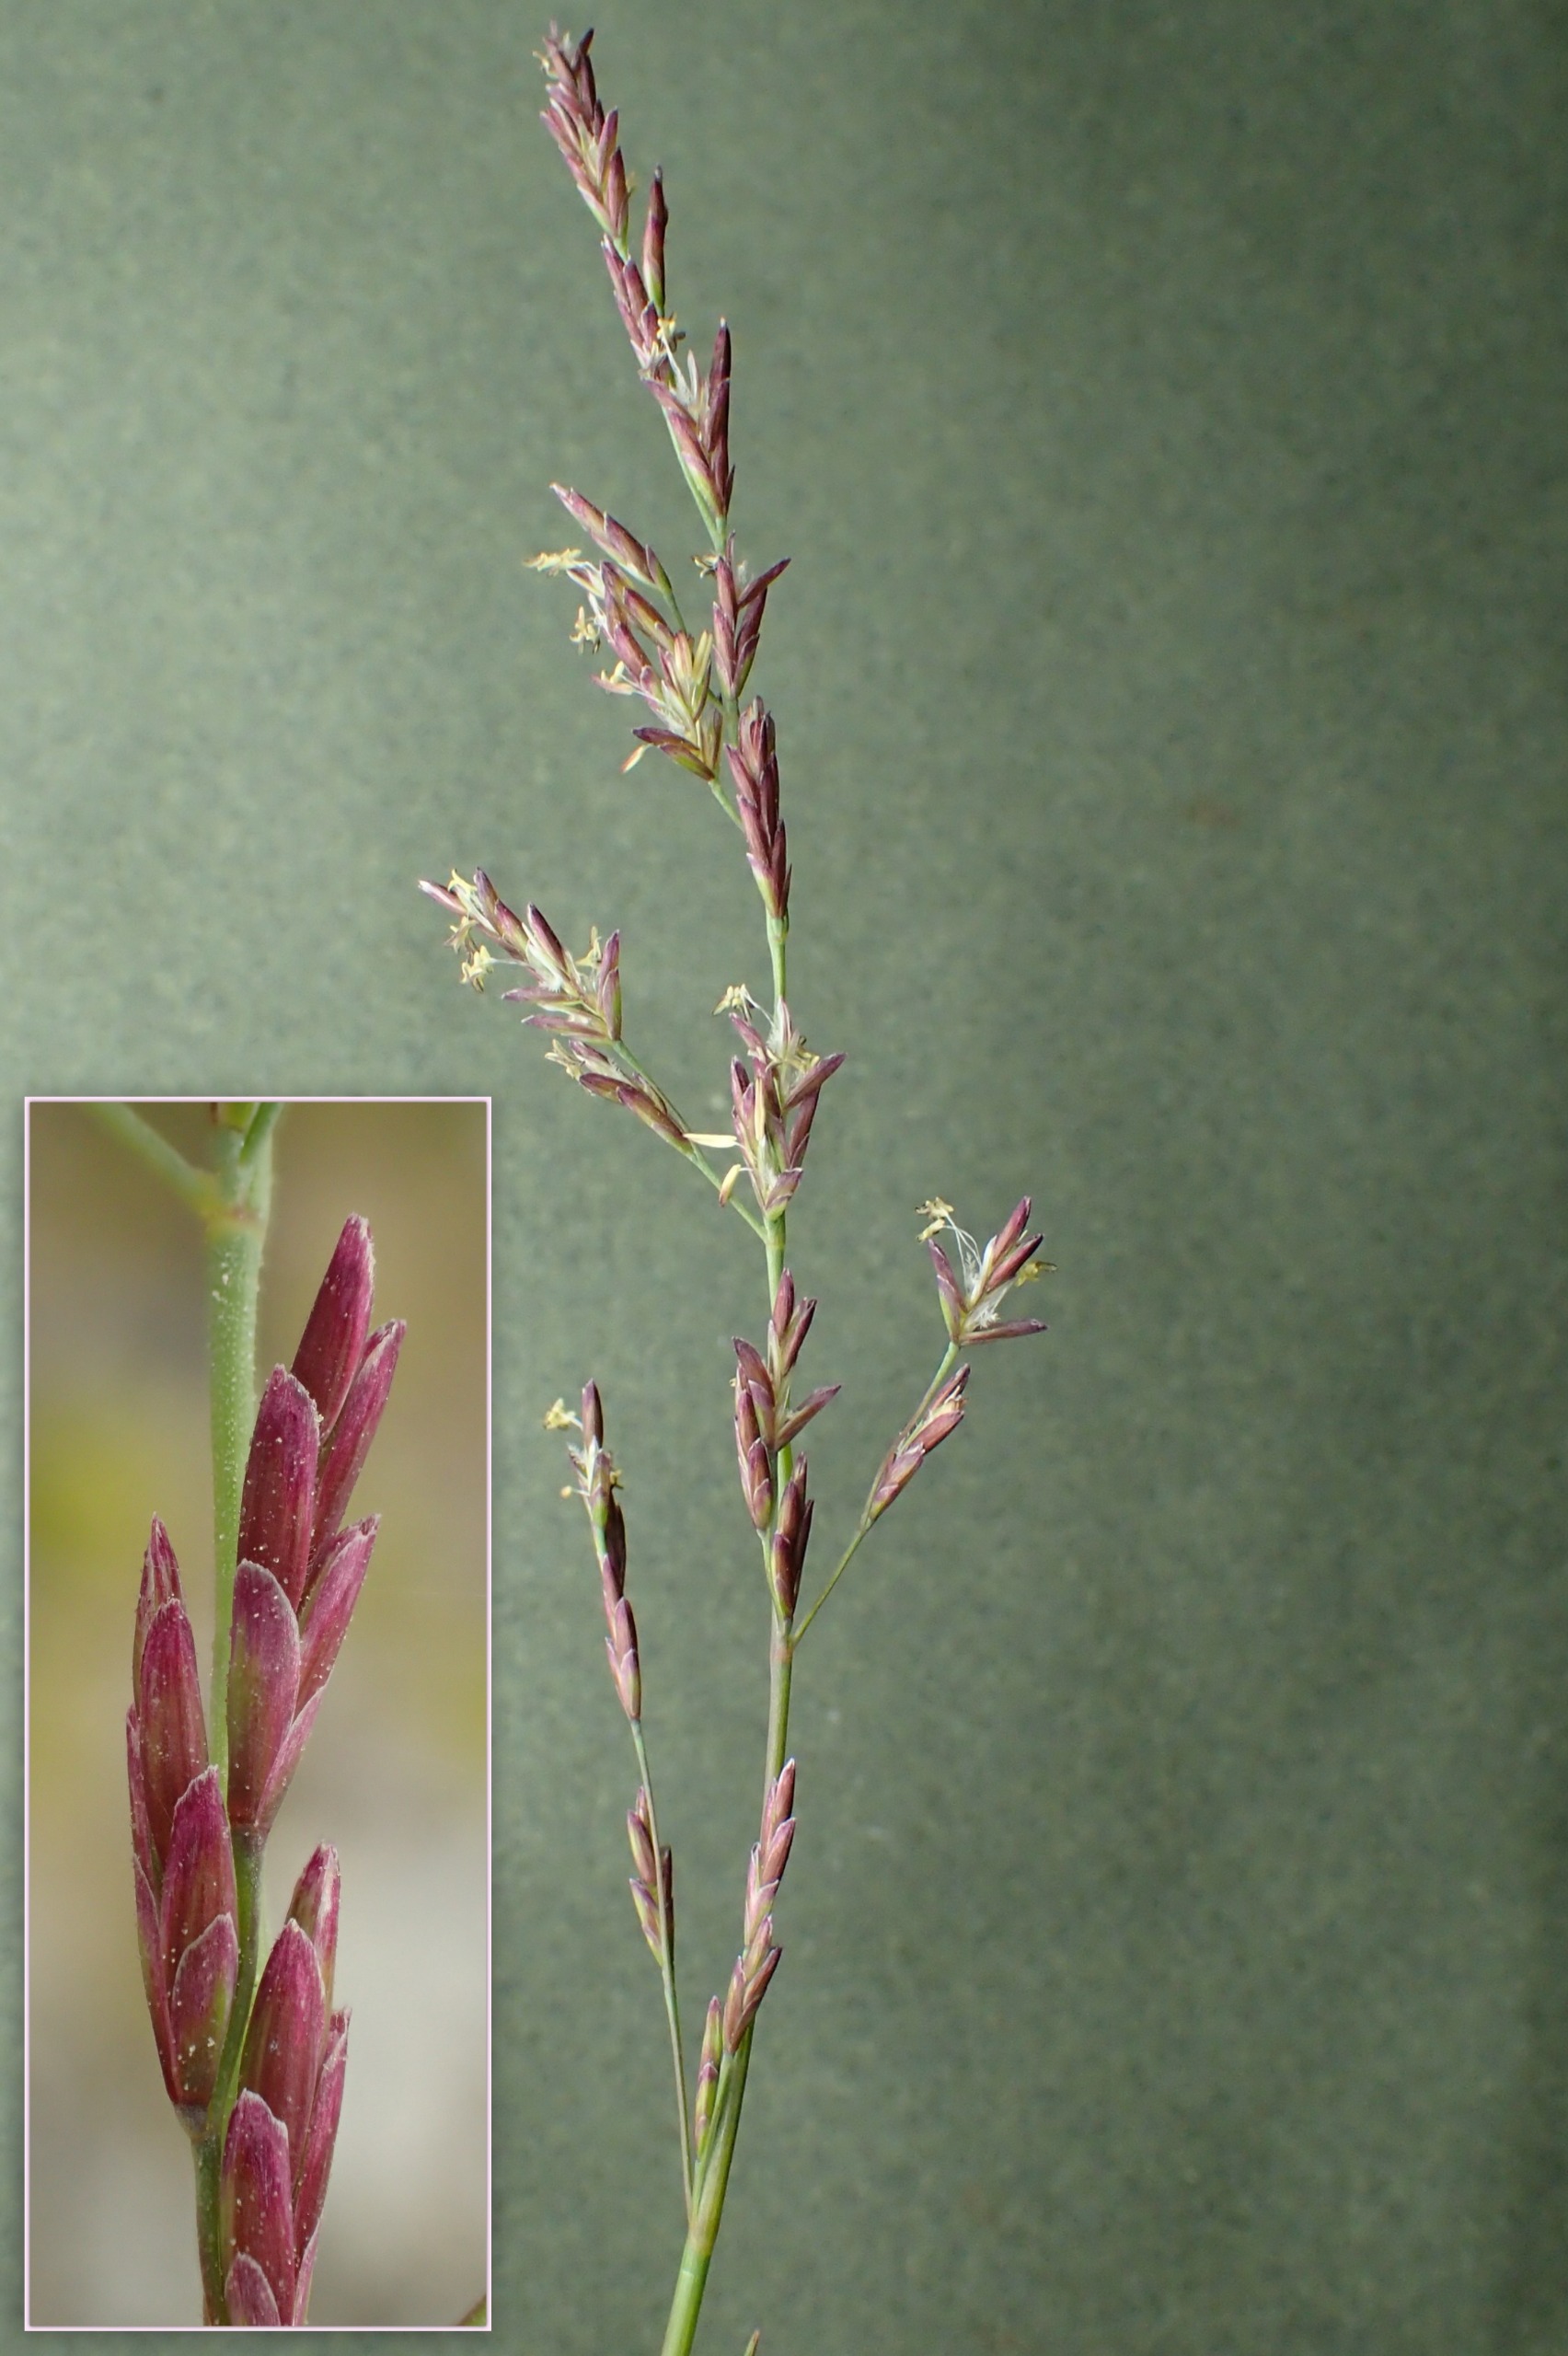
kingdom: Plantae
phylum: Tracheophyta
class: Liliopsida
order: Poales
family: Poaceae
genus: Puccinellia
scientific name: Puccinellia maritima
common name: Strand-annelgræs
